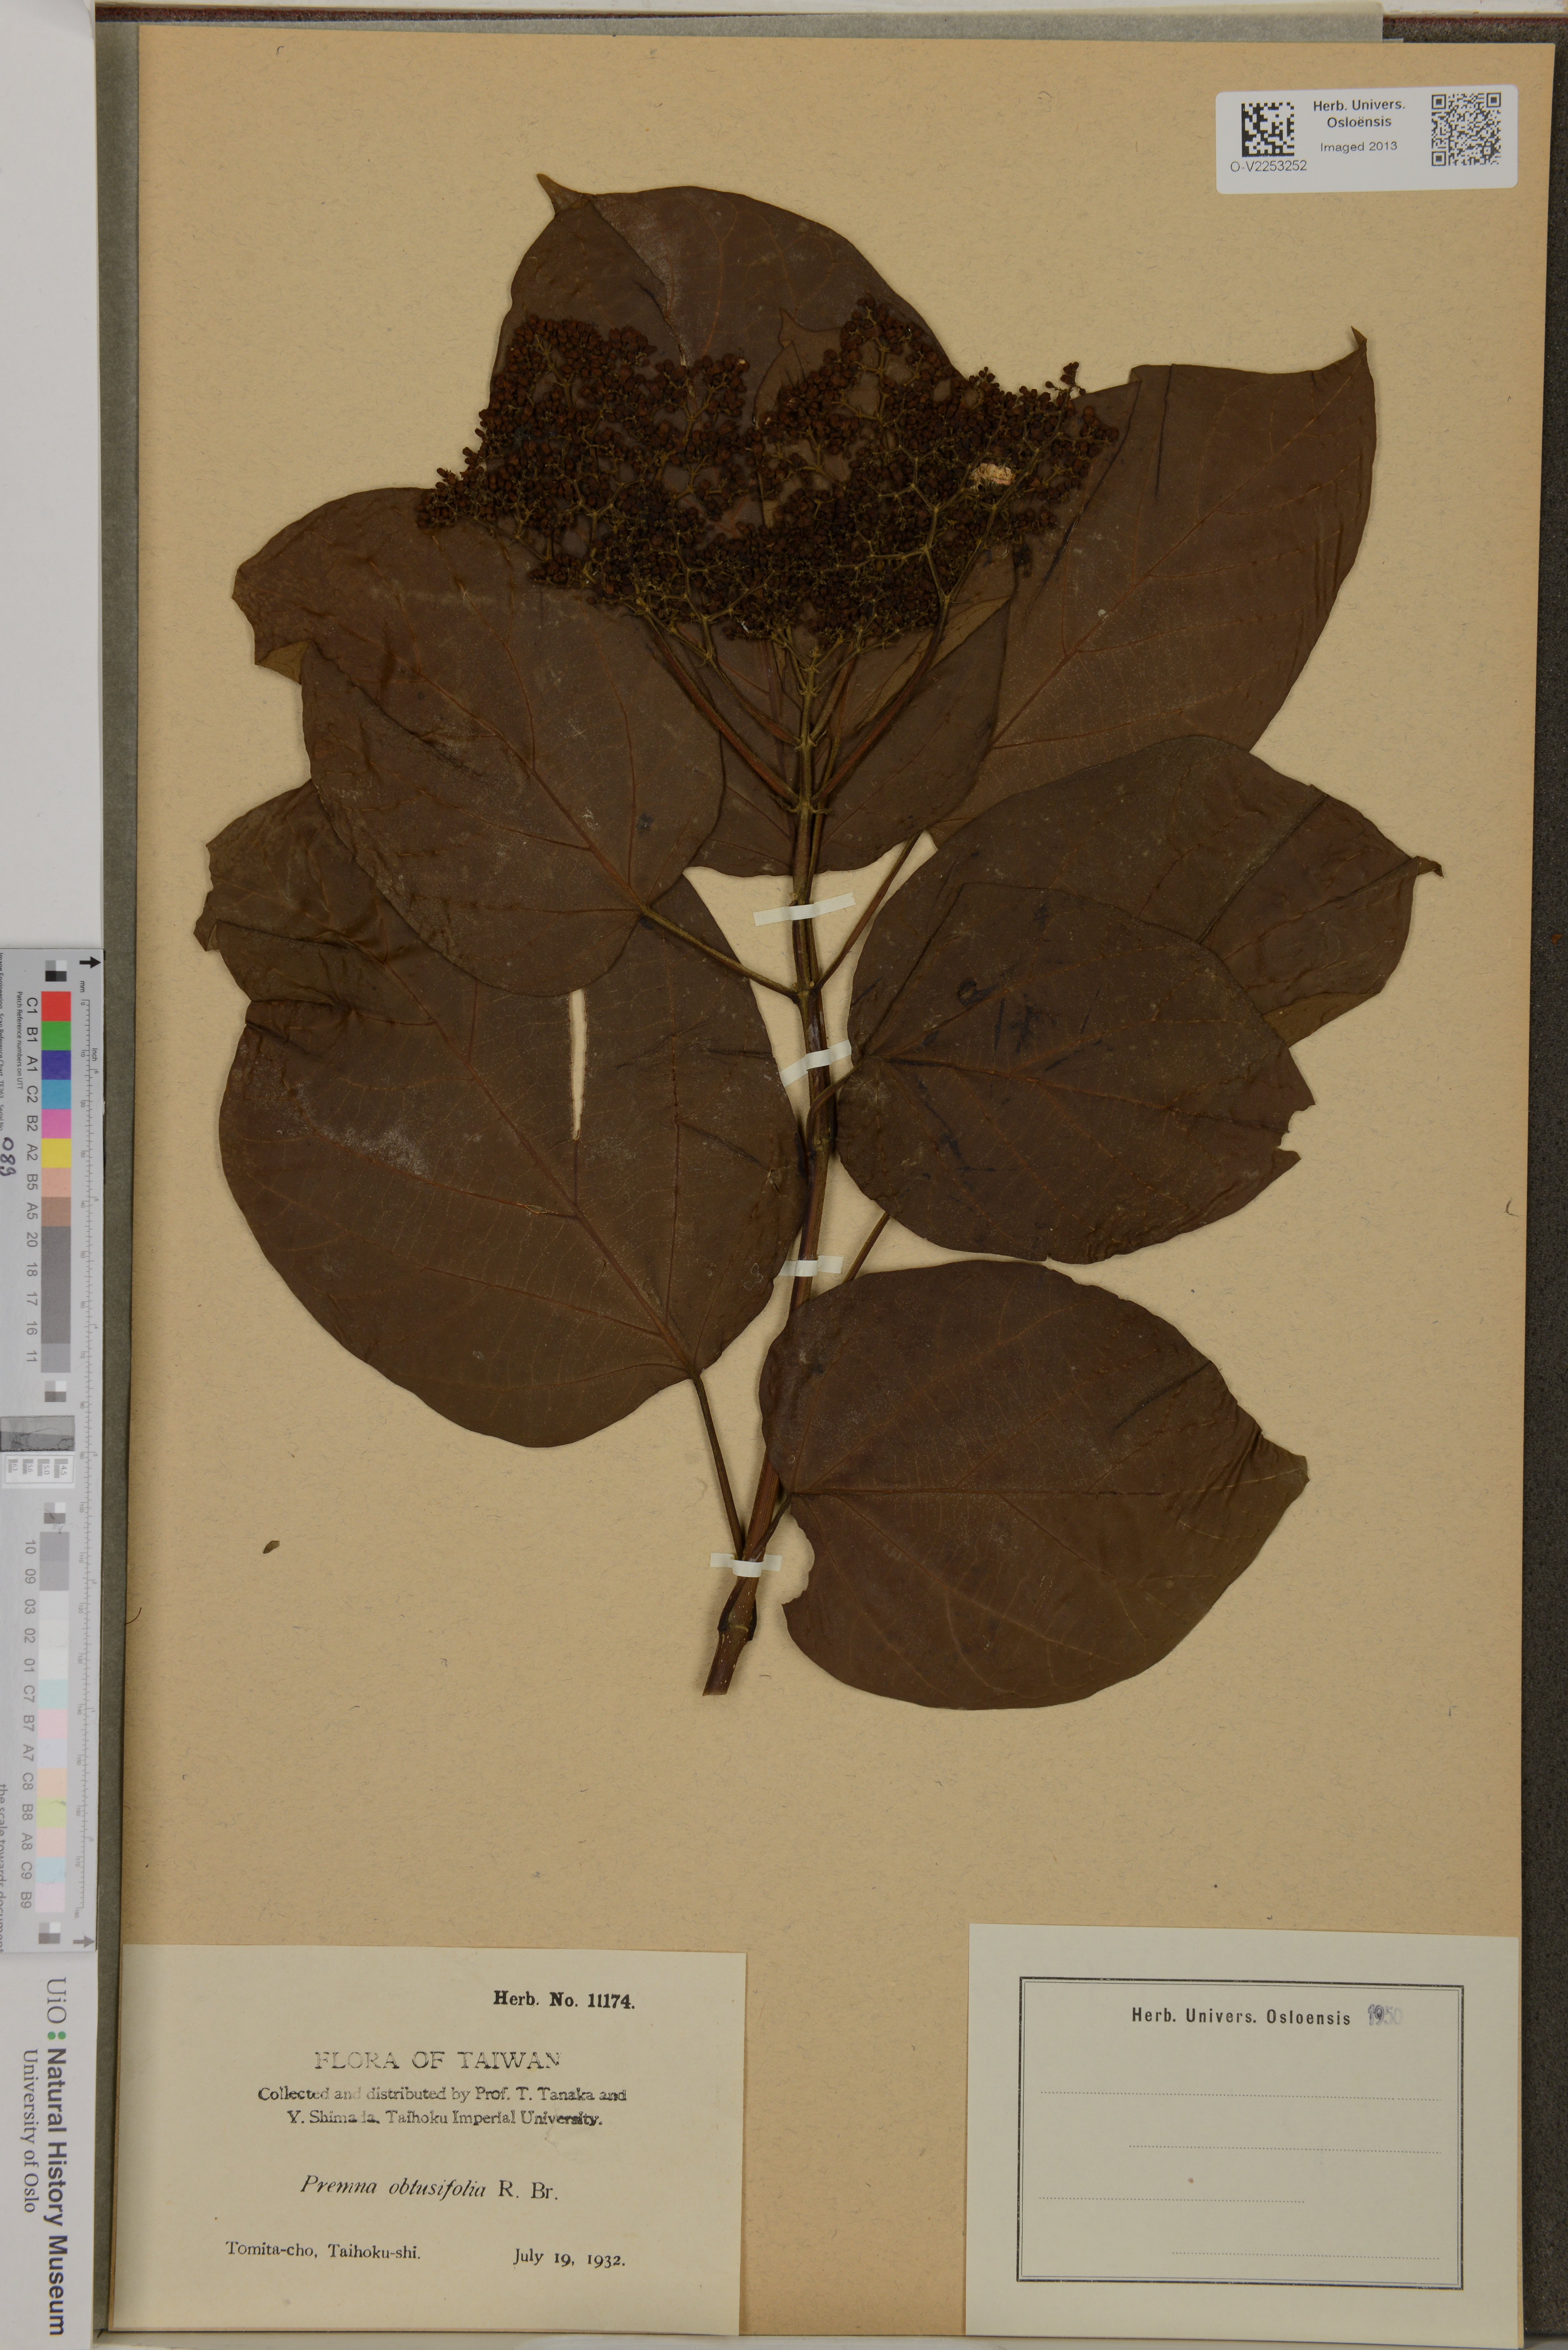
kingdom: Plantae
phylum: Tracheophyta
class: Magnoliopsida
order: Lamiales
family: Lamiaceae
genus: Premna
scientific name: Premna serratifolia
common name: Bastard guelder
